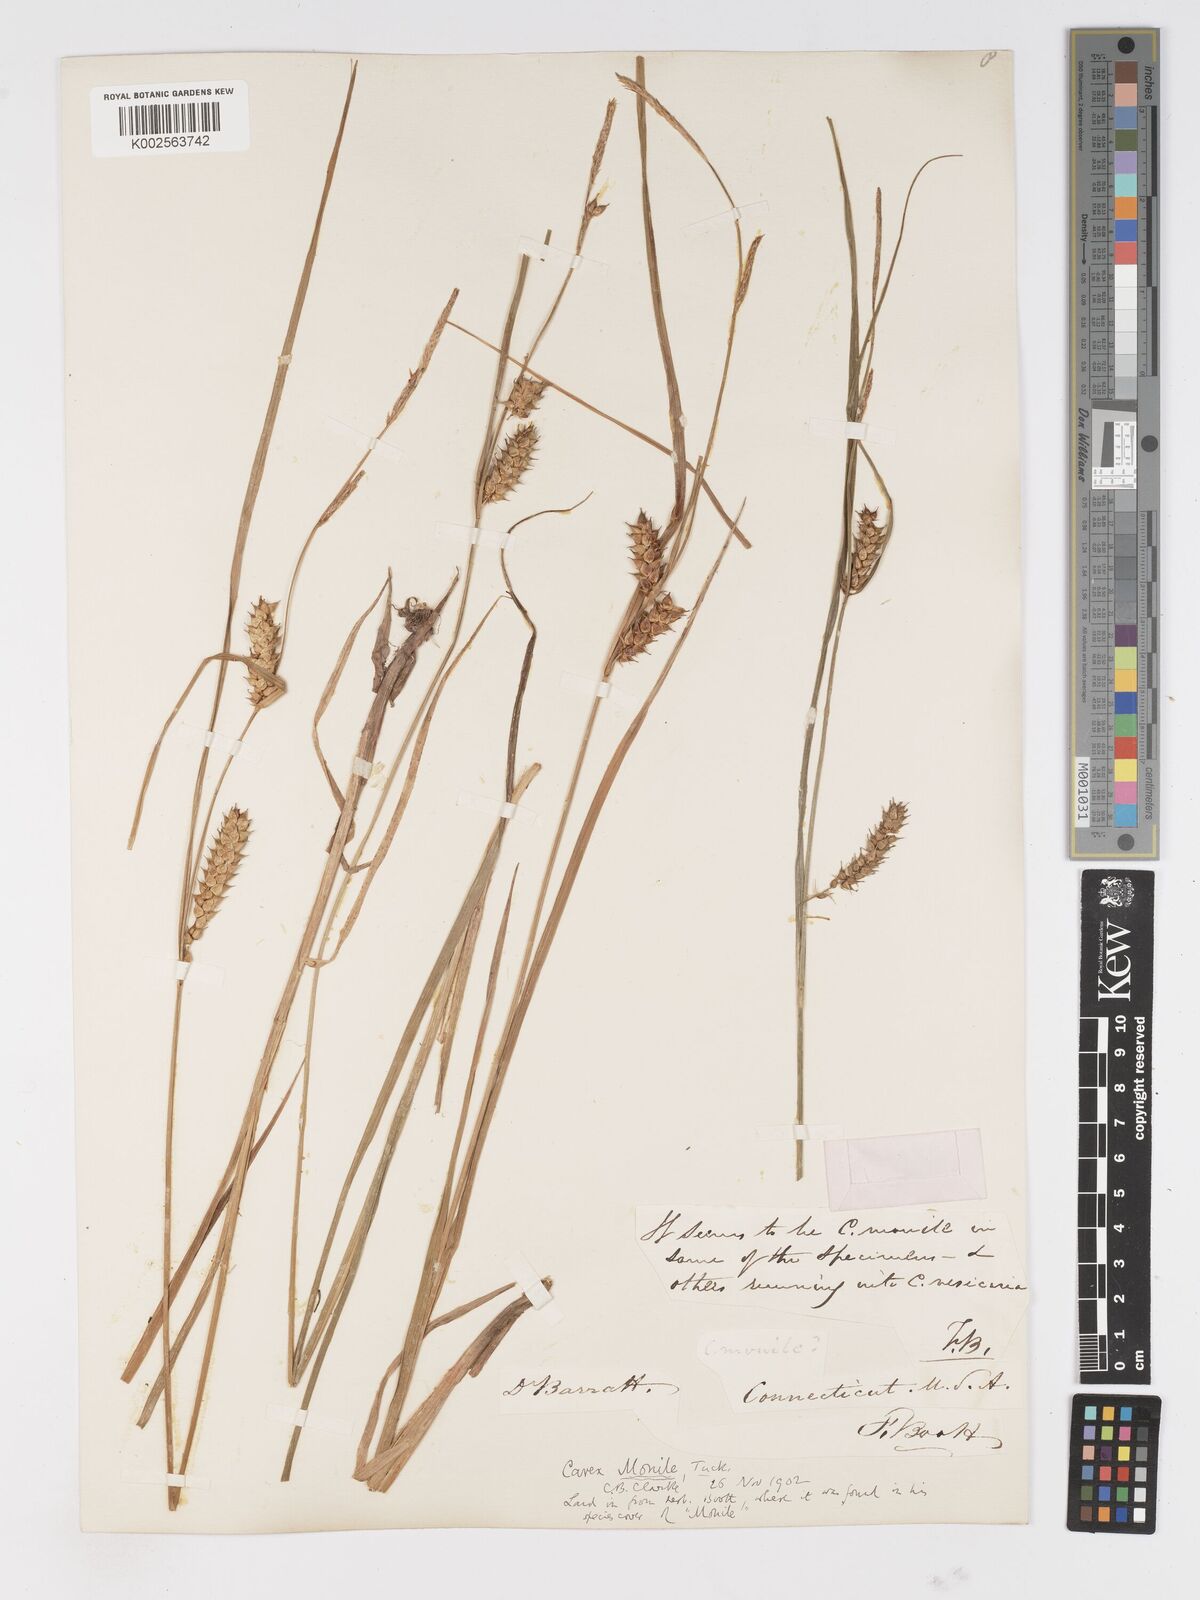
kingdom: Plantae
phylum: Tracheophyta
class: Liliopsida
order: Poales
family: Cyperaceae
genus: Carex
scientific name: Carex vesicaria
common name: Bladder-sedge
